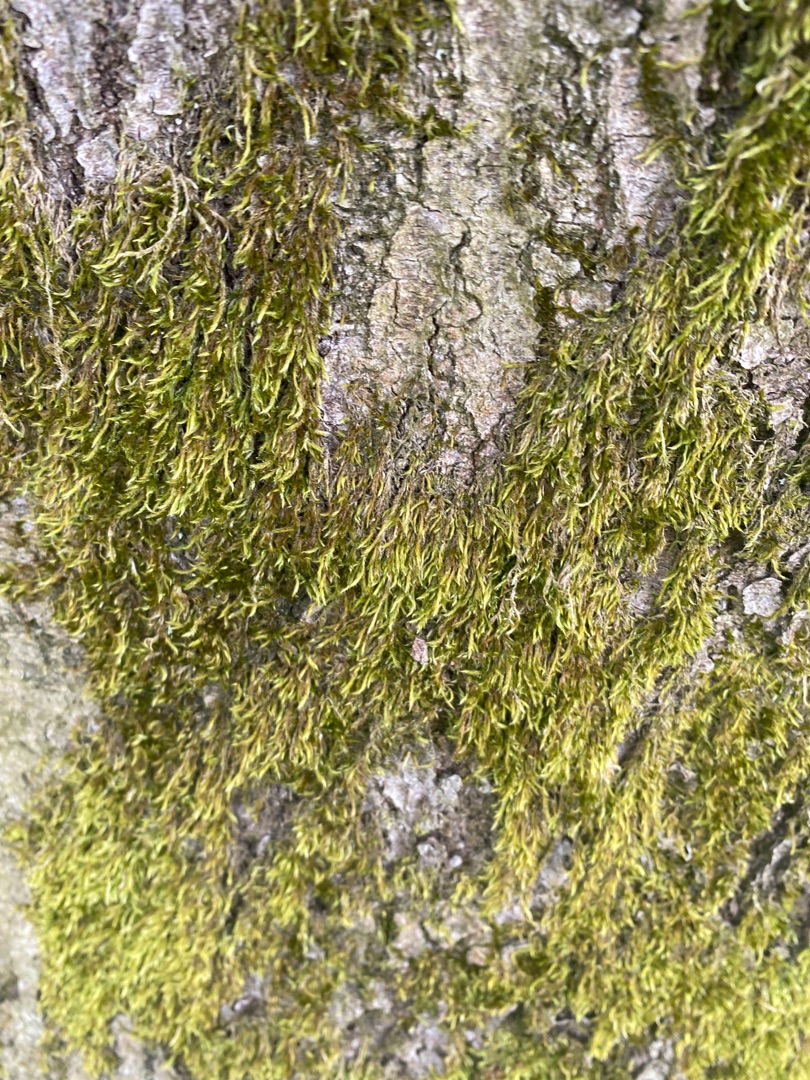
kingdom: Plantae
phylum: Bryophyta
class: Bryopsida
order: Hypnales
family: Hypnaceae
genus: Hypnum
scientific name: Hypnum
